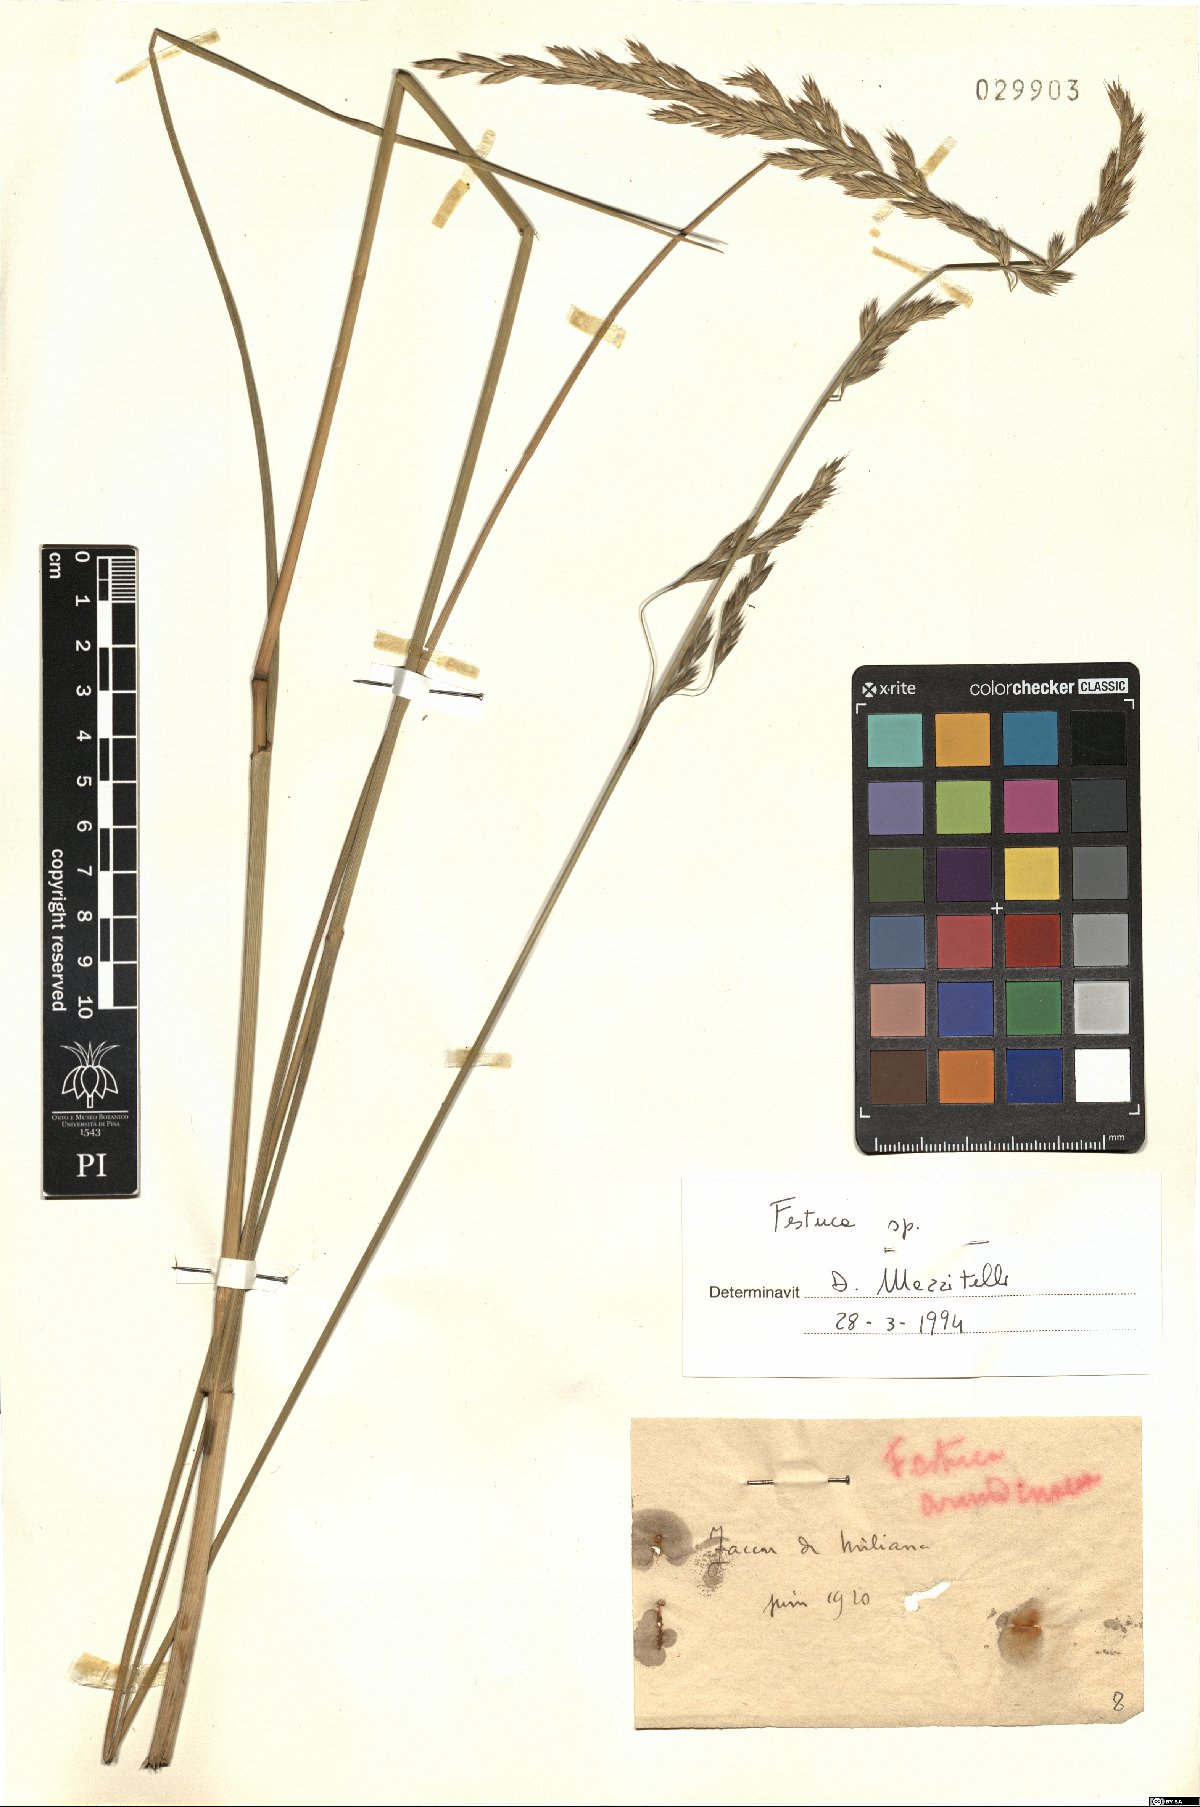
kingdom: Plantae
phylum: Tracheophyta
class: Liliopsida
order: Poales
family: Poaceae
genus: Festuca
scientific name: Festuca
